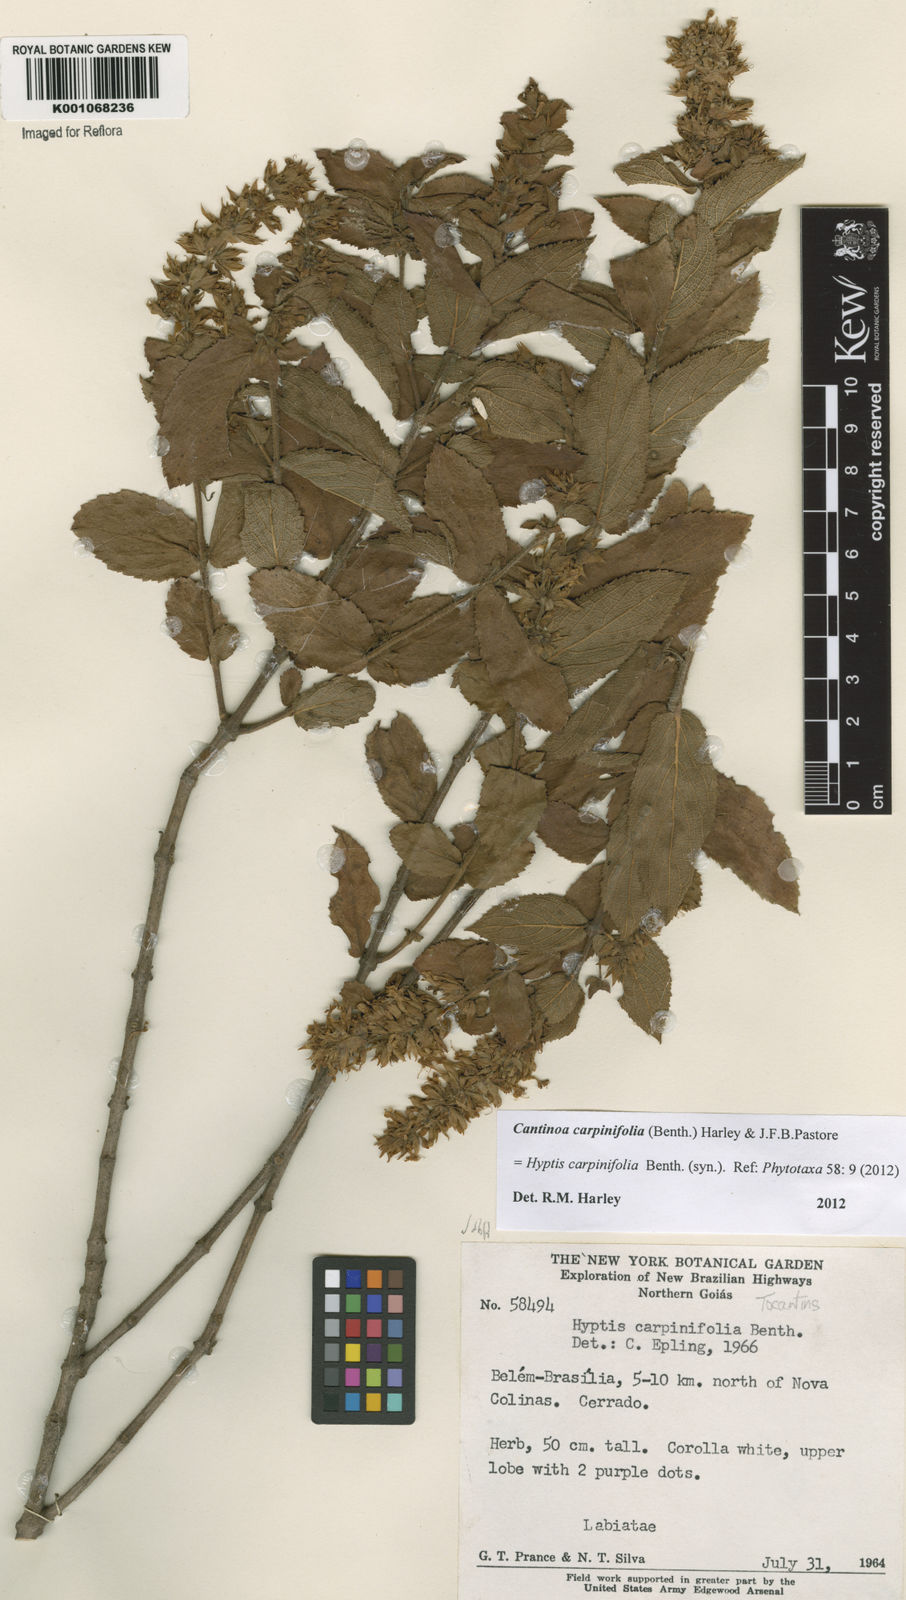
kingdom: Plantae
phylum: Tracheophyta
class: Magnoliopsida
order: Lamiales
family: Lamiaceae
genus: Cantinoa
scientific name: Cantinoa carpinifolia
